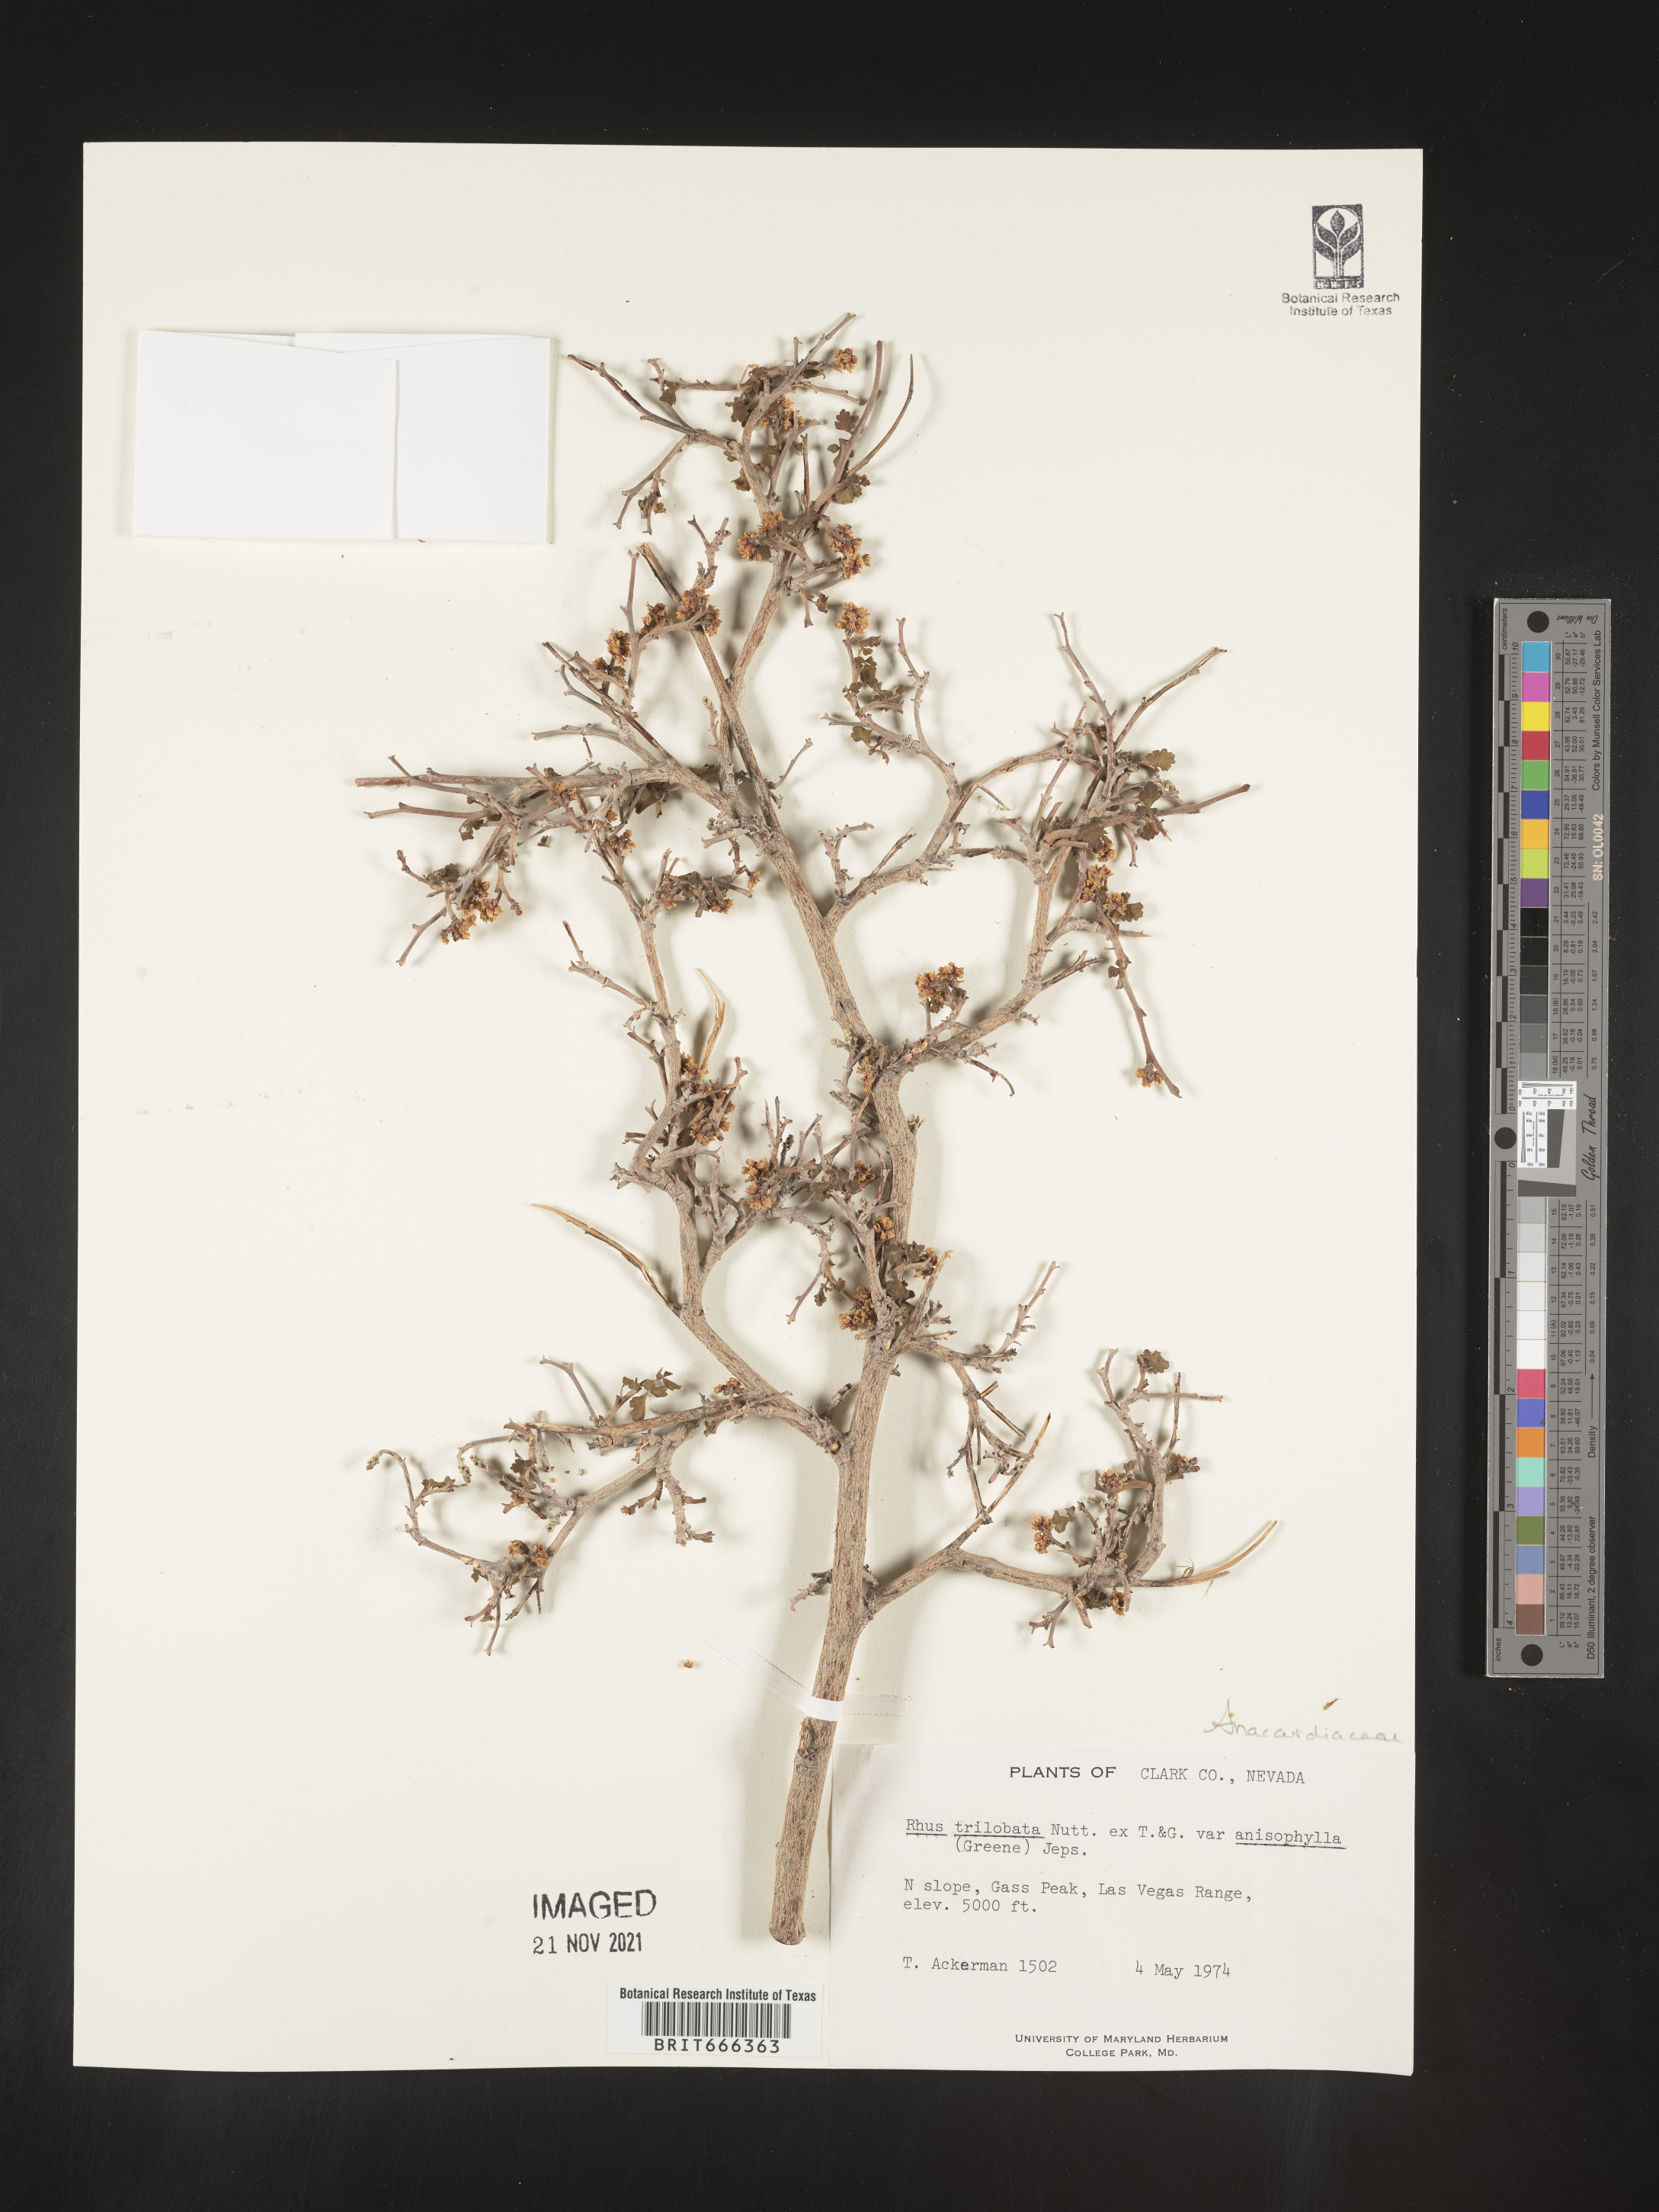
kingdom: Plantae
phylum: Tracheophyta
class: Magnoliopsida
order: Sapindales
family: Anacardiaceae
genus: Rhus
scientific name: Rhus trilobata
